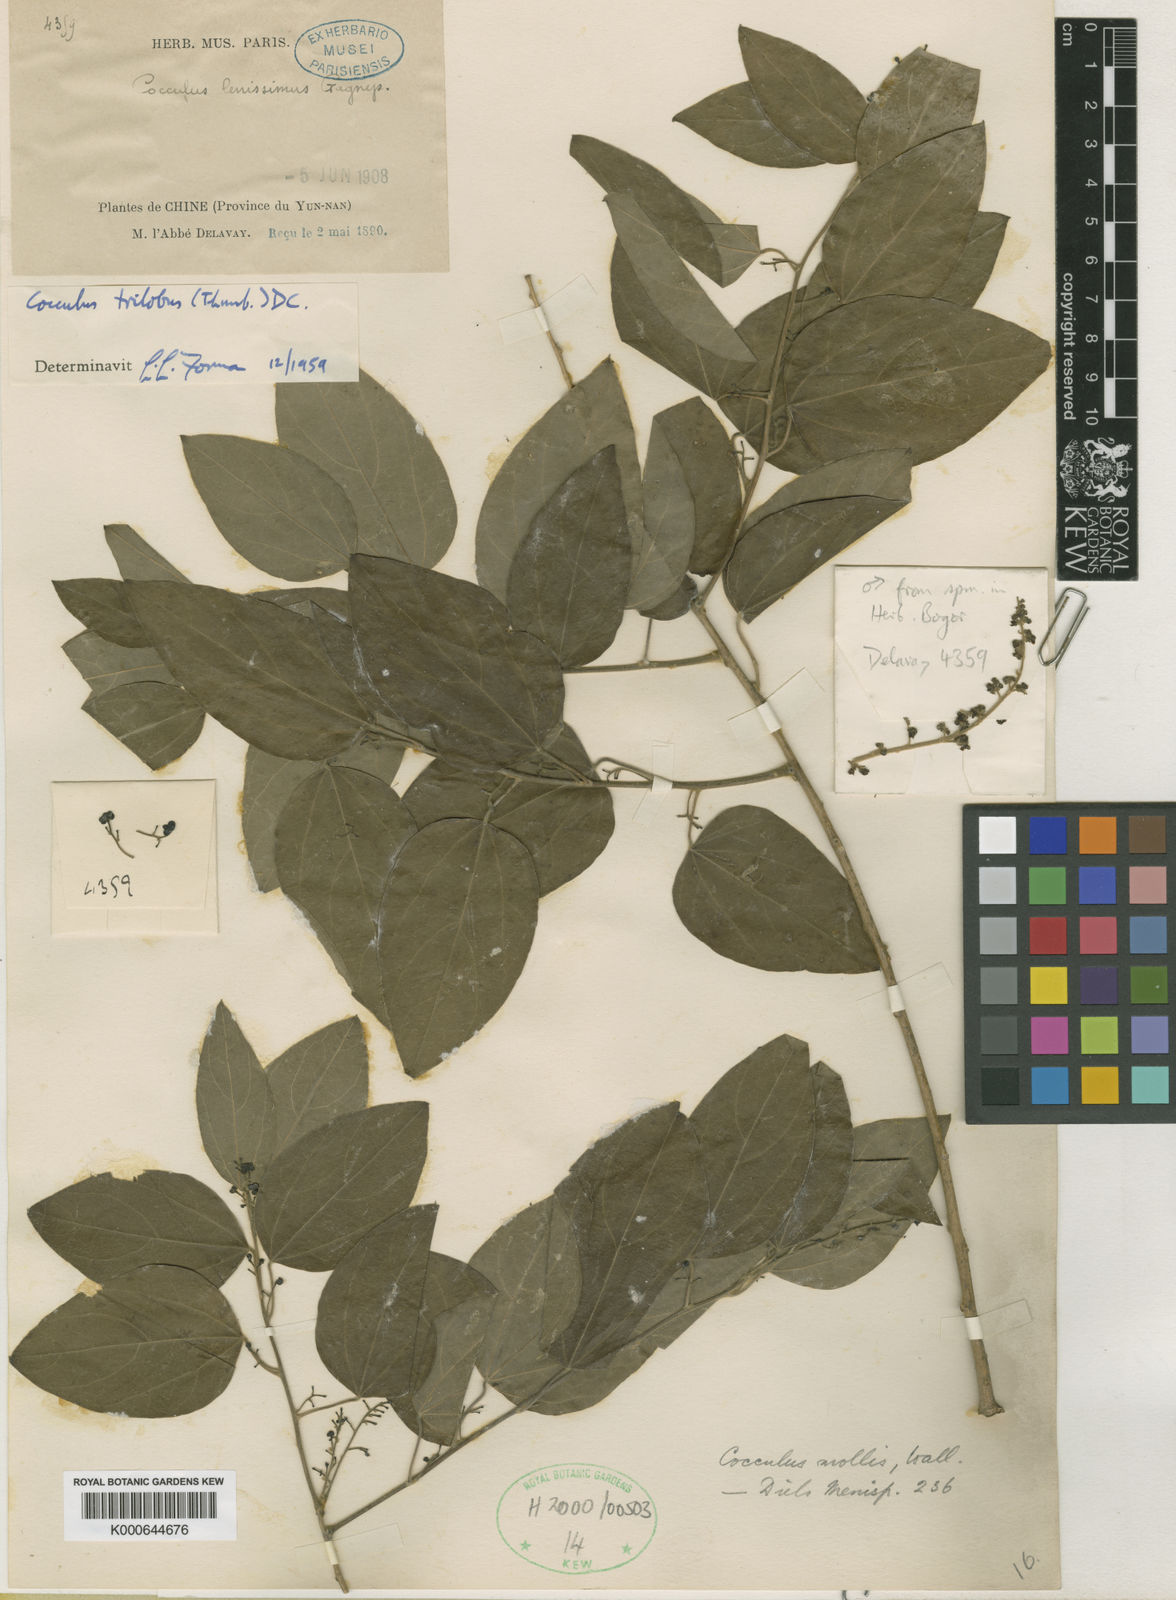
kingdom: Plantae
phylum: Tracheophyta
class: Magnoliopsida
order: Ranunculales
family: Menispermaceae
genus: Cocculus
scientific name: Cocculus orbiculatus
